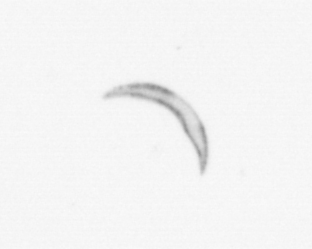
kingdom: Chromista
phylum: Ochrophyta
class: Bacillariophyceae
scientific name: Bacillariophyceae
